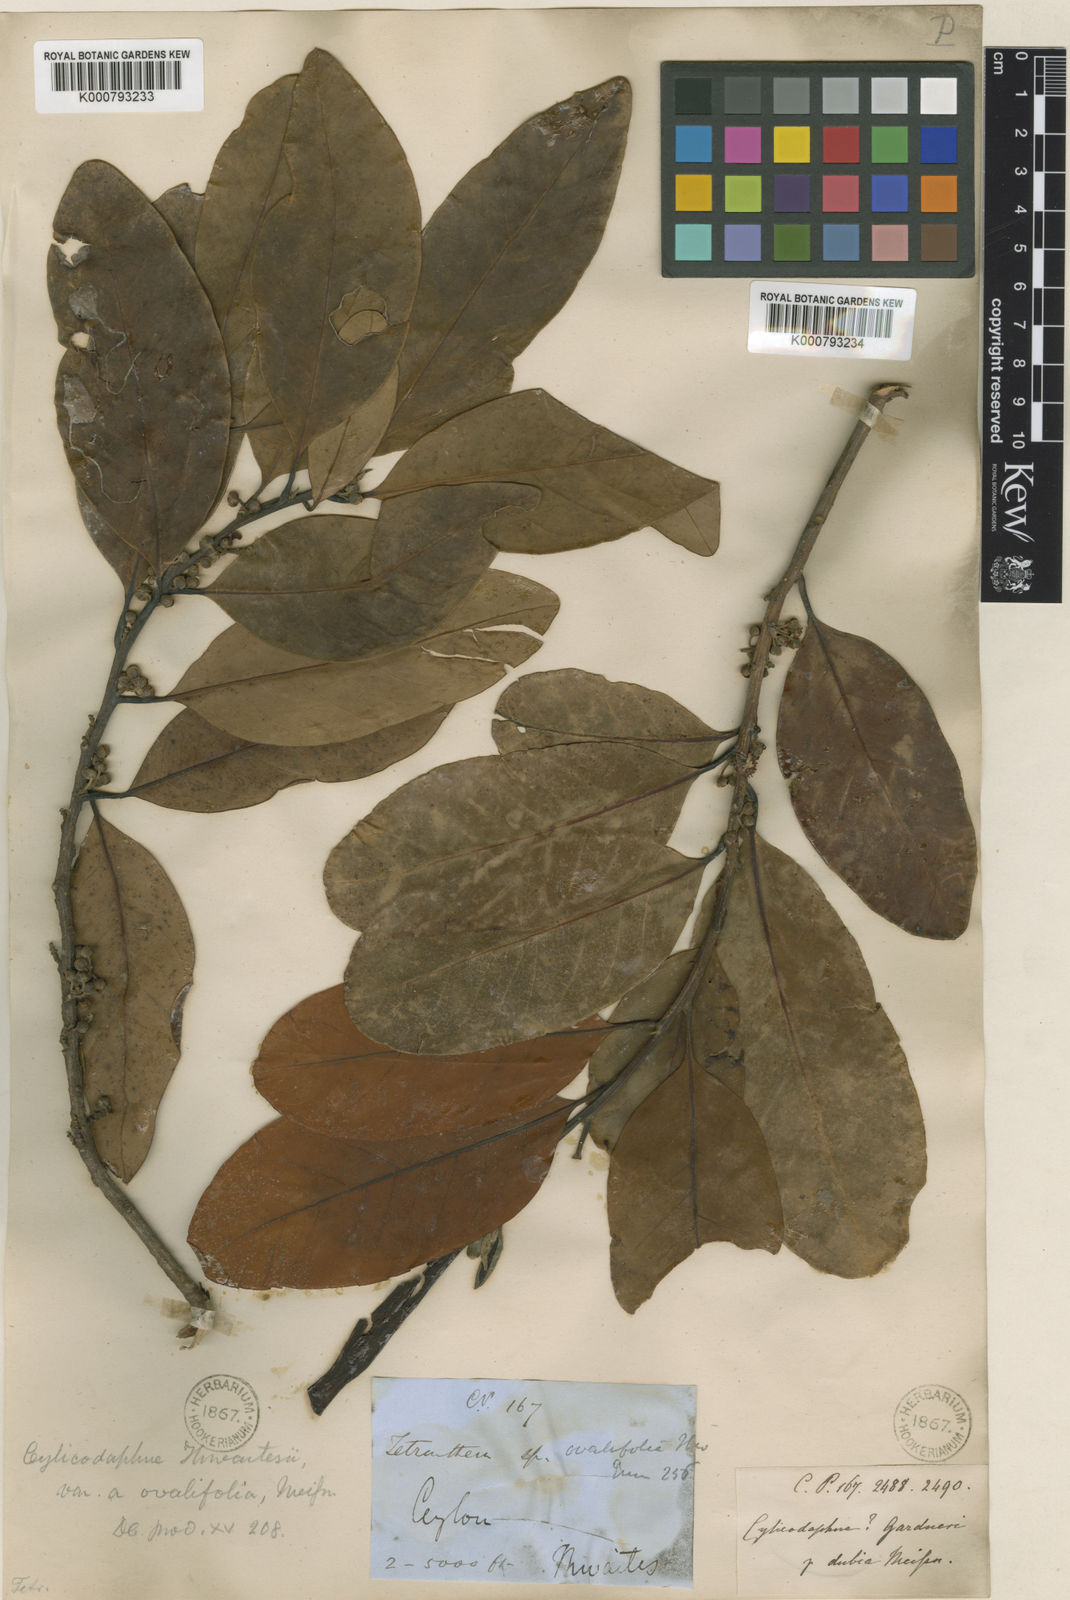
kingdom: Plantae
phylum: Tracheophyta
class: Magnoliopsida
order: Laurales
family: Lauraceae
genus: Litsea
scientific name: Litsea ovalifolia
